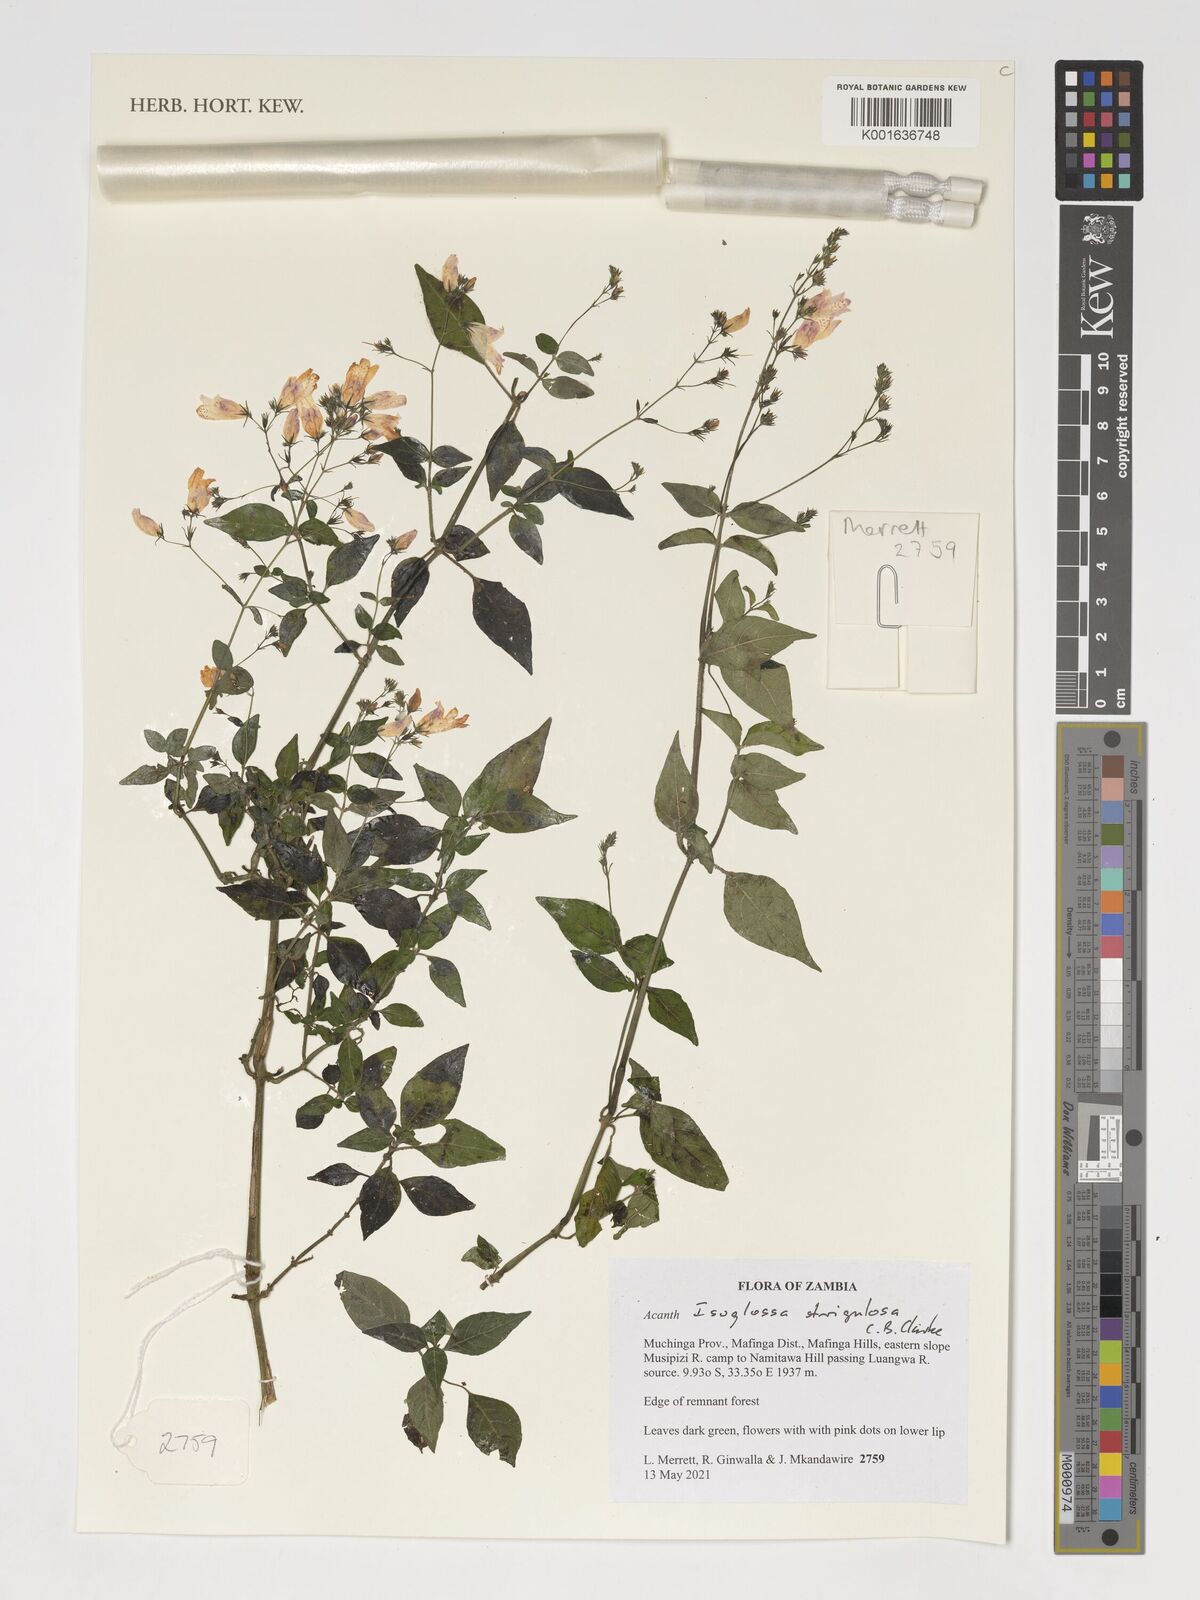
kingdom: Plantae
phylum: Tracheophyta
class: Magnoliopsida
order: Lamiales
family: Acanthaceae
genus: Isoglossa
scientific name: Isoglossa strigosula
